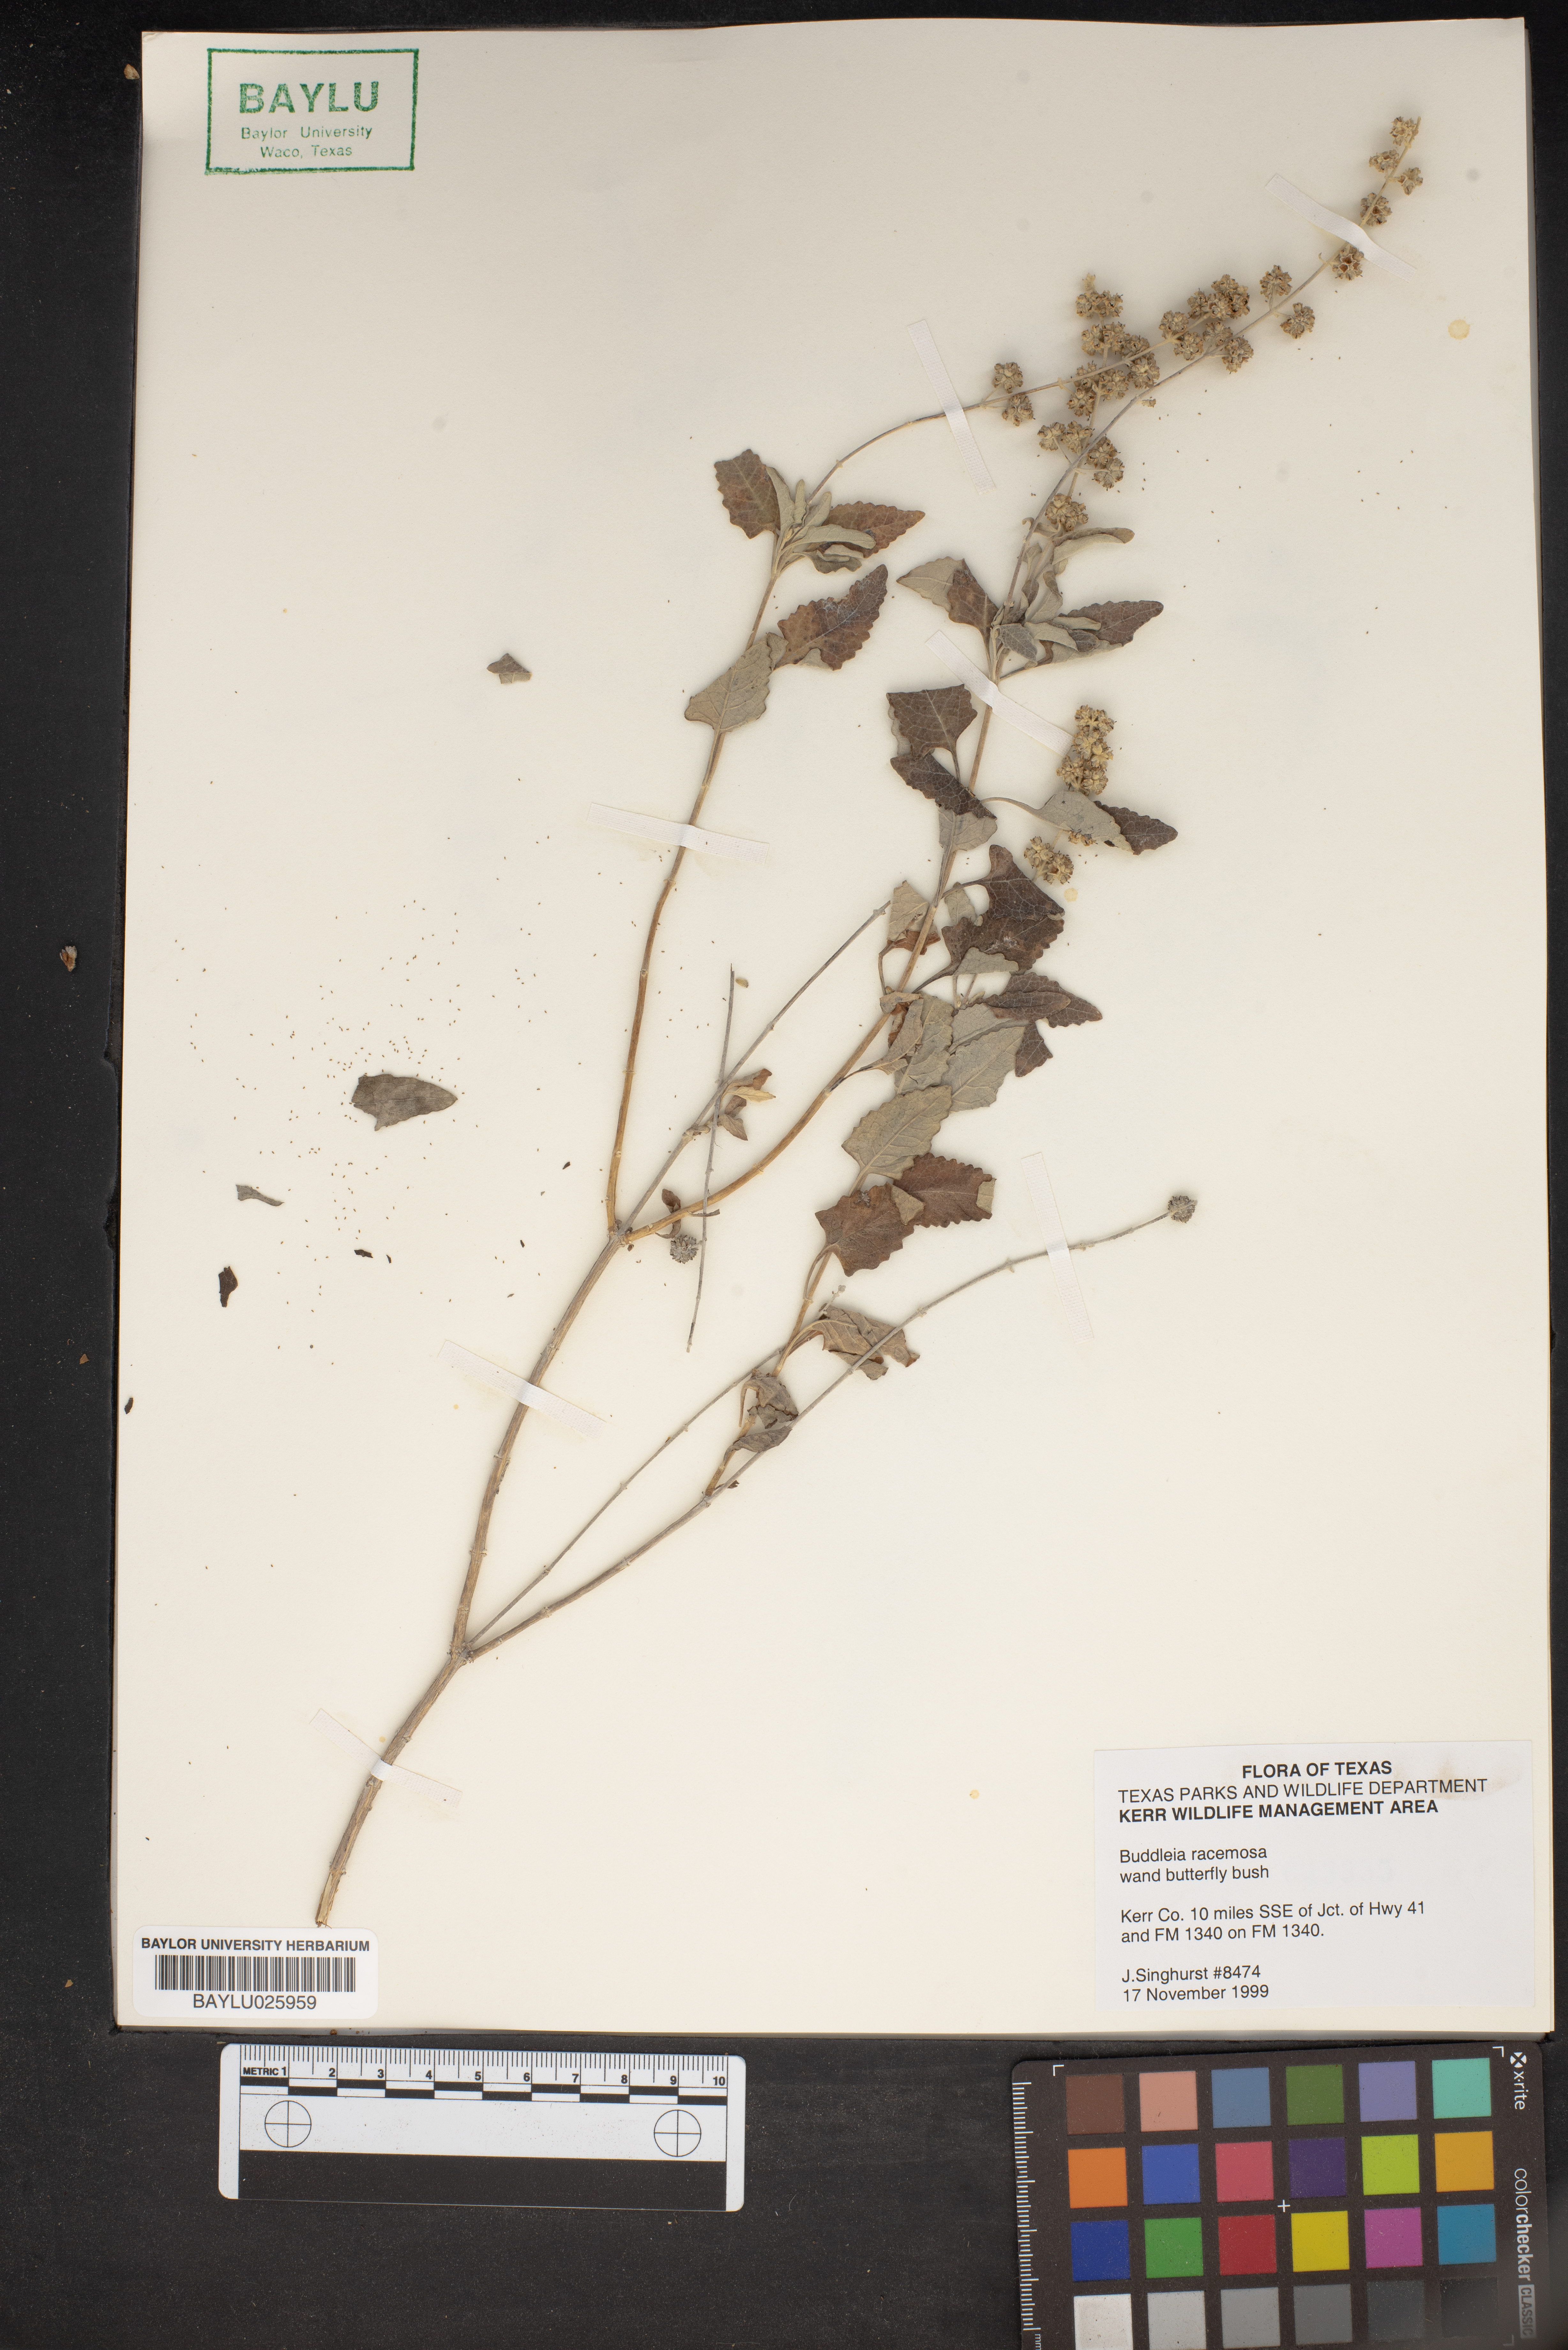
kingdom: Plantae
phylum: Tracheophyta
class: Magnoliopsida
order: Lamiales
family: Scrophulariaceae
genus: Buddleja
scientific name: Buddleja racemosa
